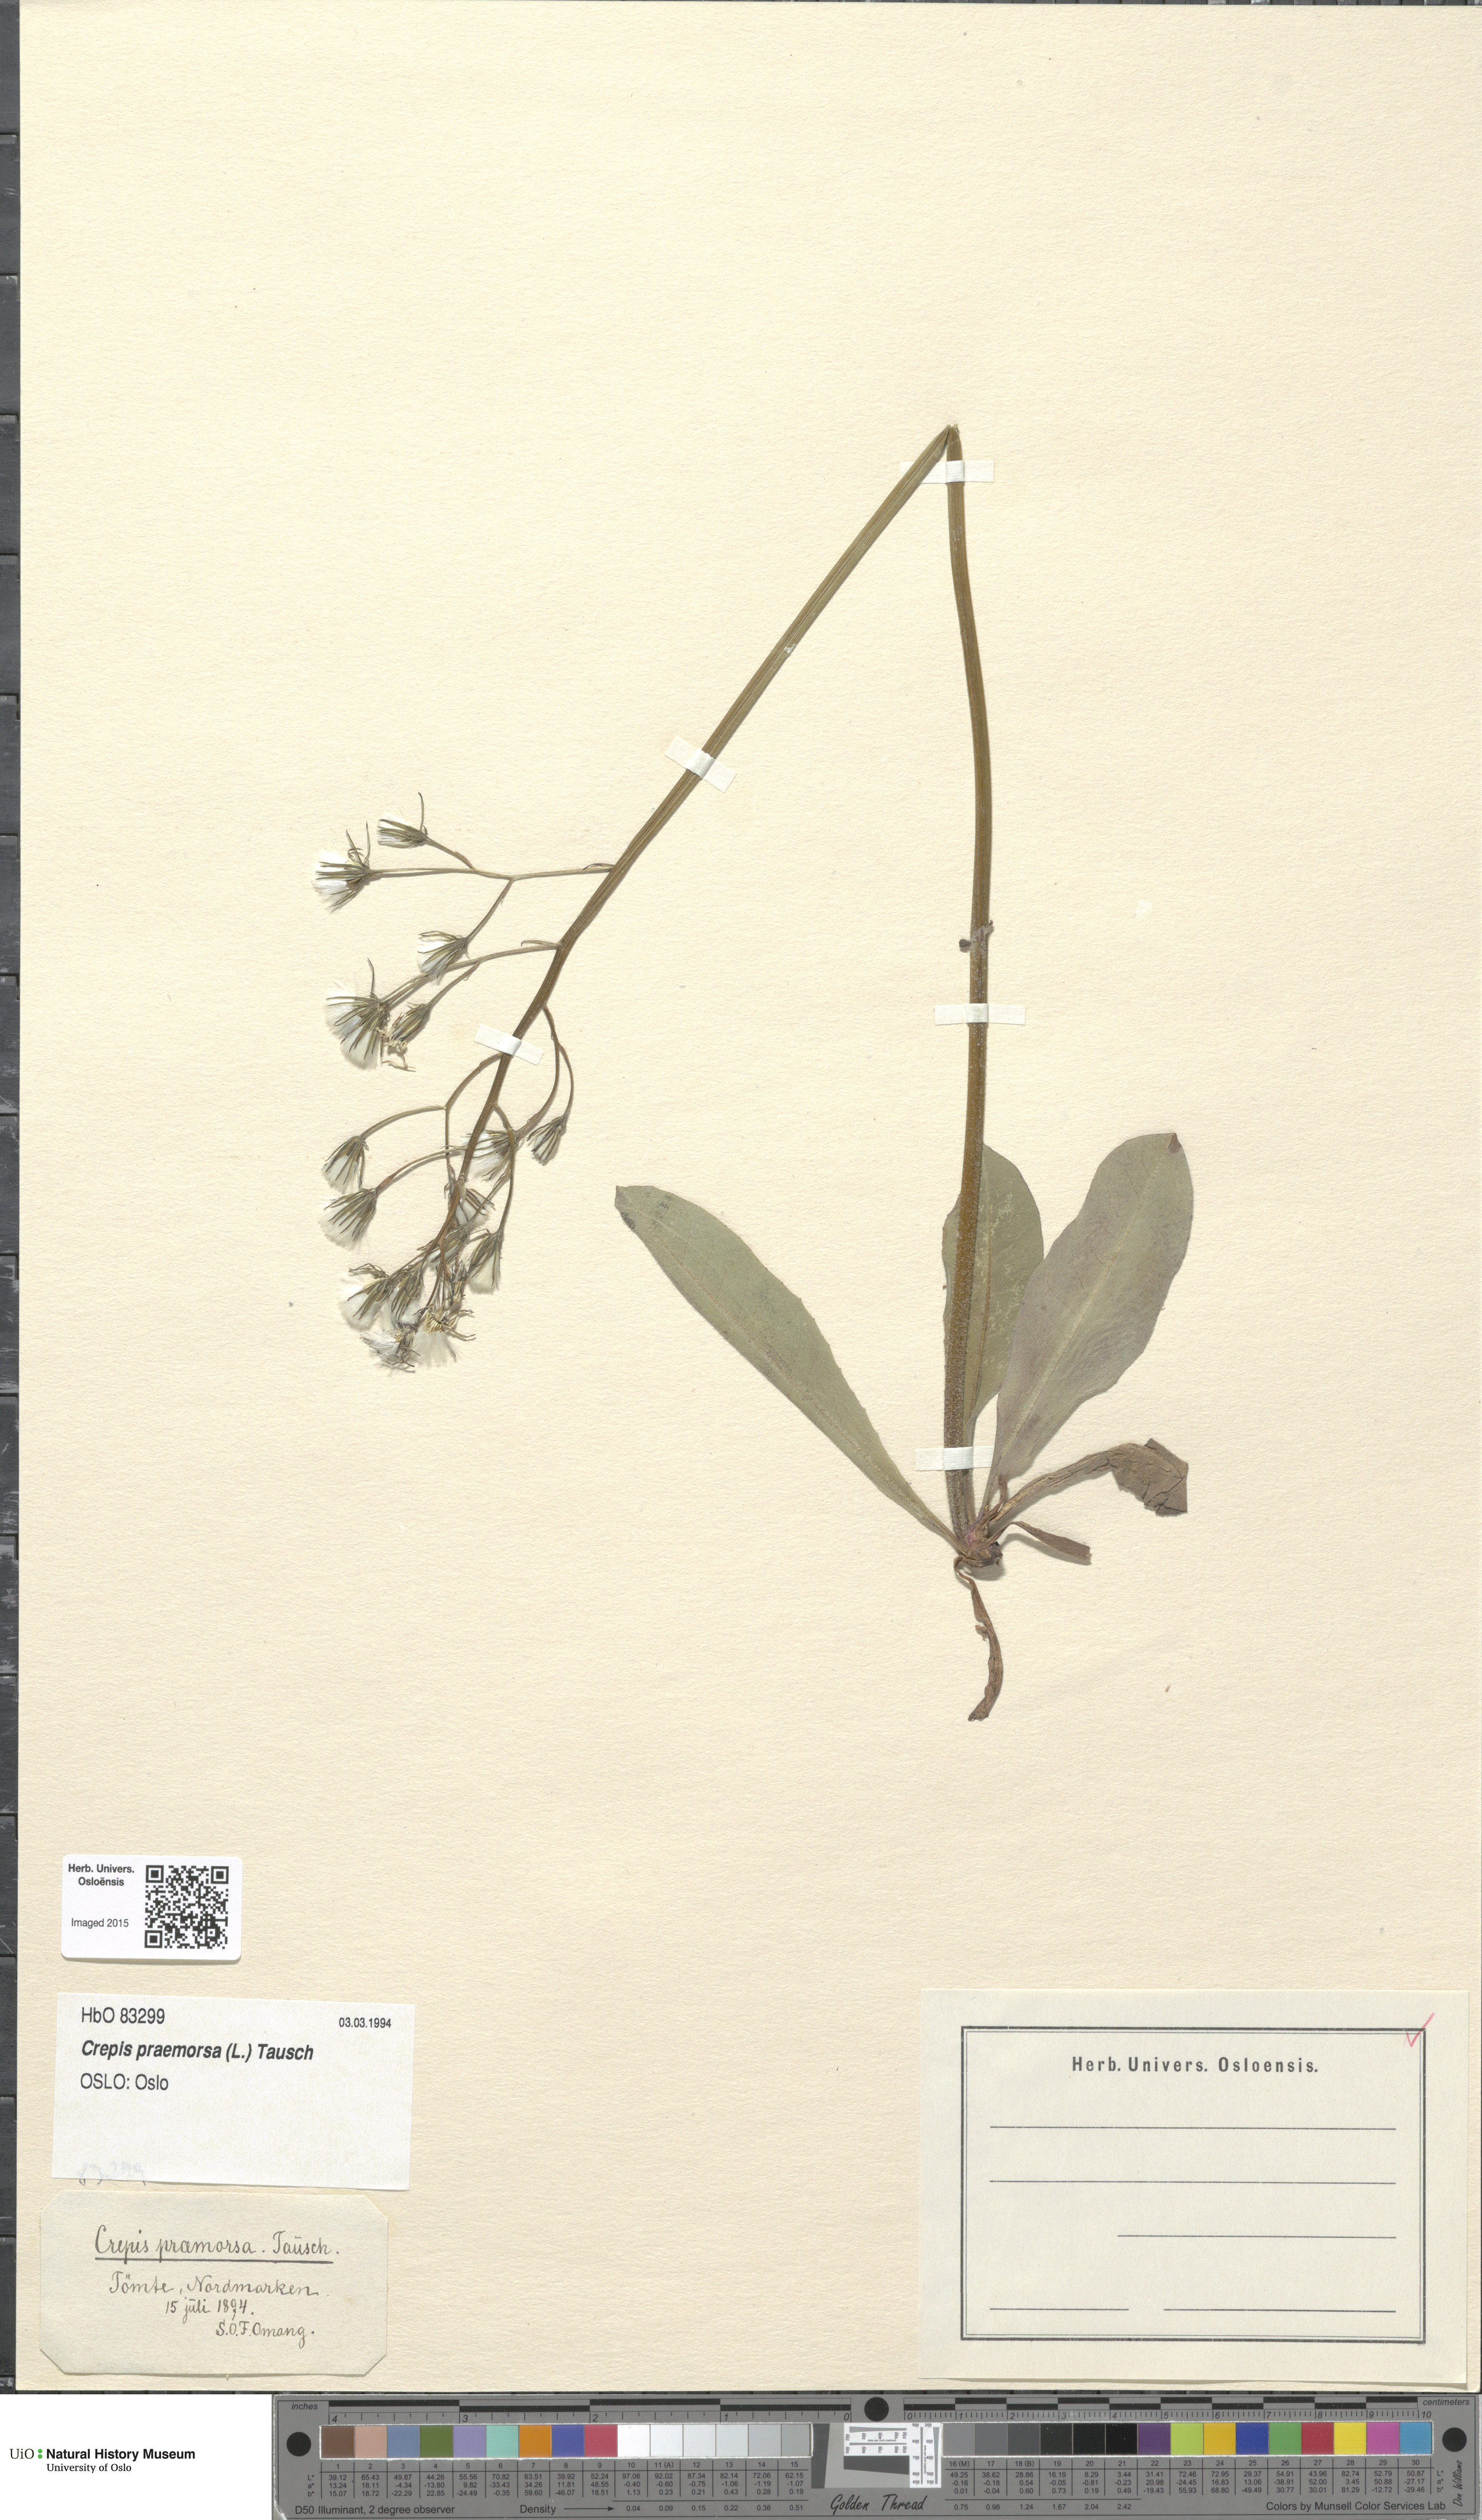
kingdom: Plantae
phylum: Tracheophyta
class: Magnoliopsida
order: Asterales
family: Asteraceae
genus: Crepis
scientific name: Crepis praemorsa
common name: Leafless hawk's-beard
